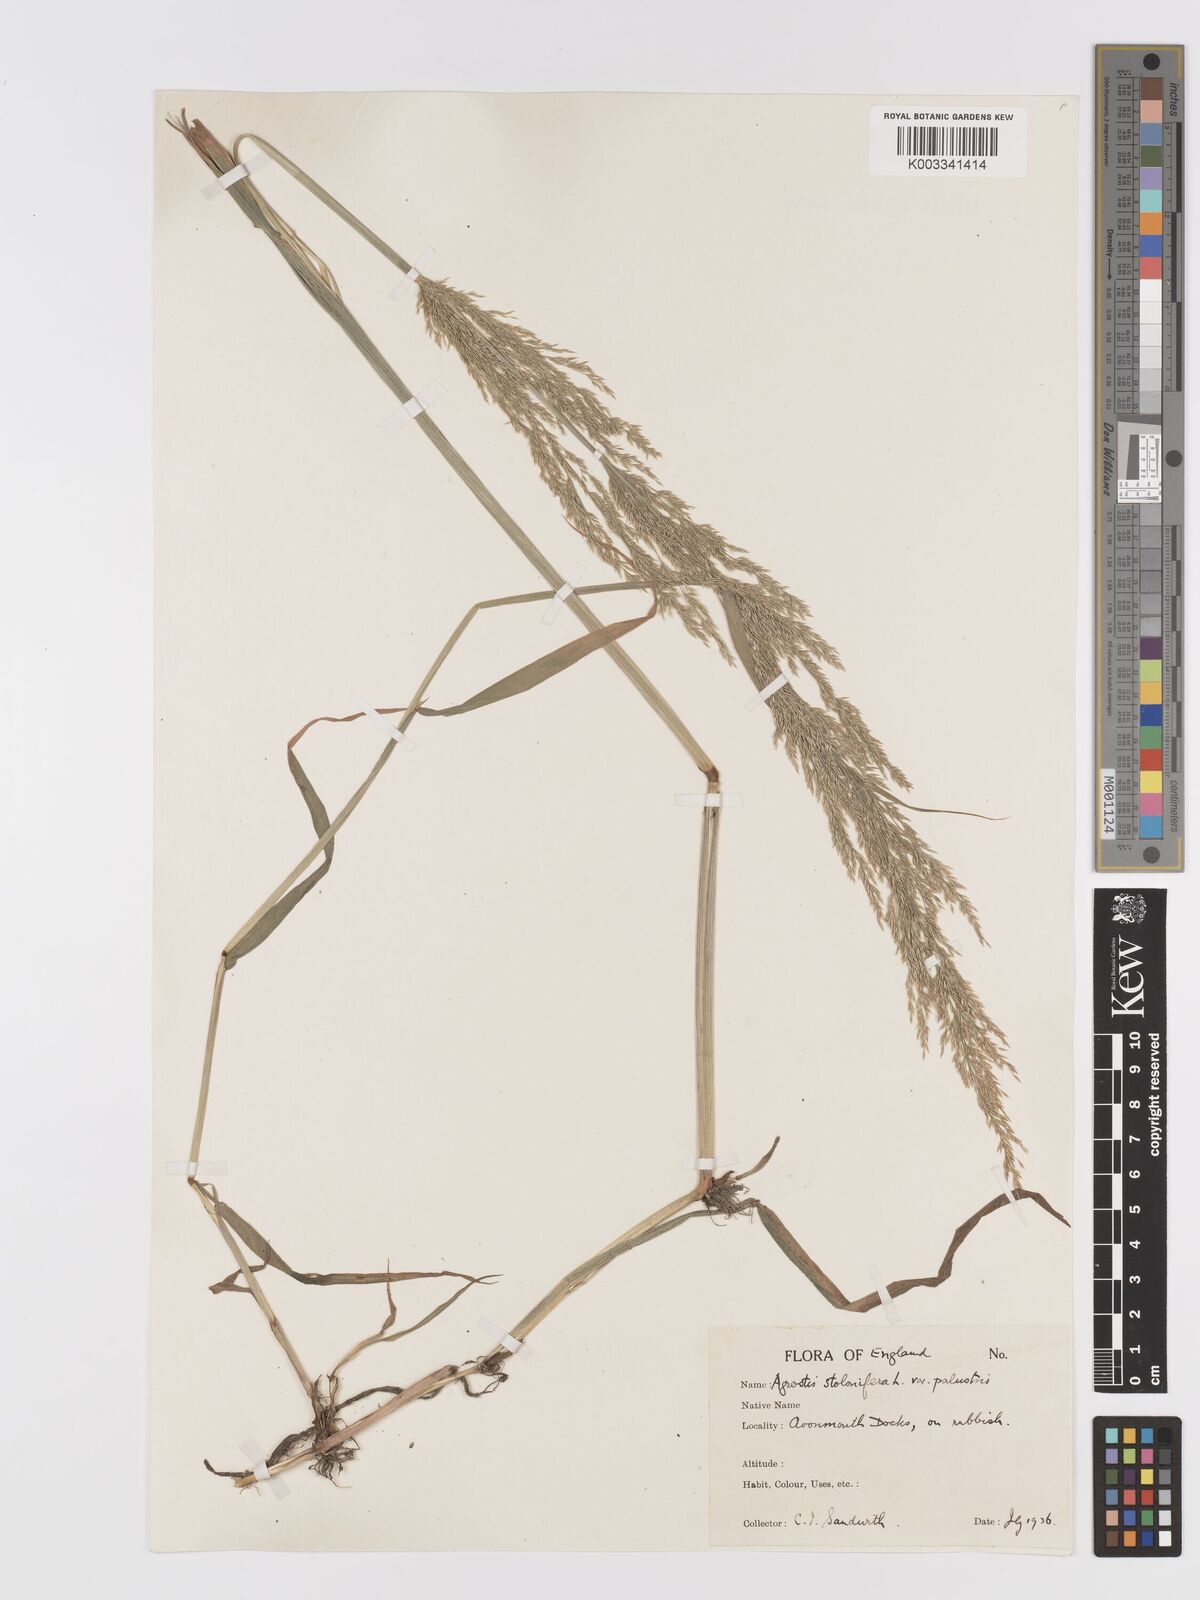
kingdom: Plantae
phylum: Tracheophyta
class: Liliopsida
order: Poales
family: Poaceae
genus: Agrostis
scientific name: Agrostis stolonifera
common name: Creeping bentgrass
